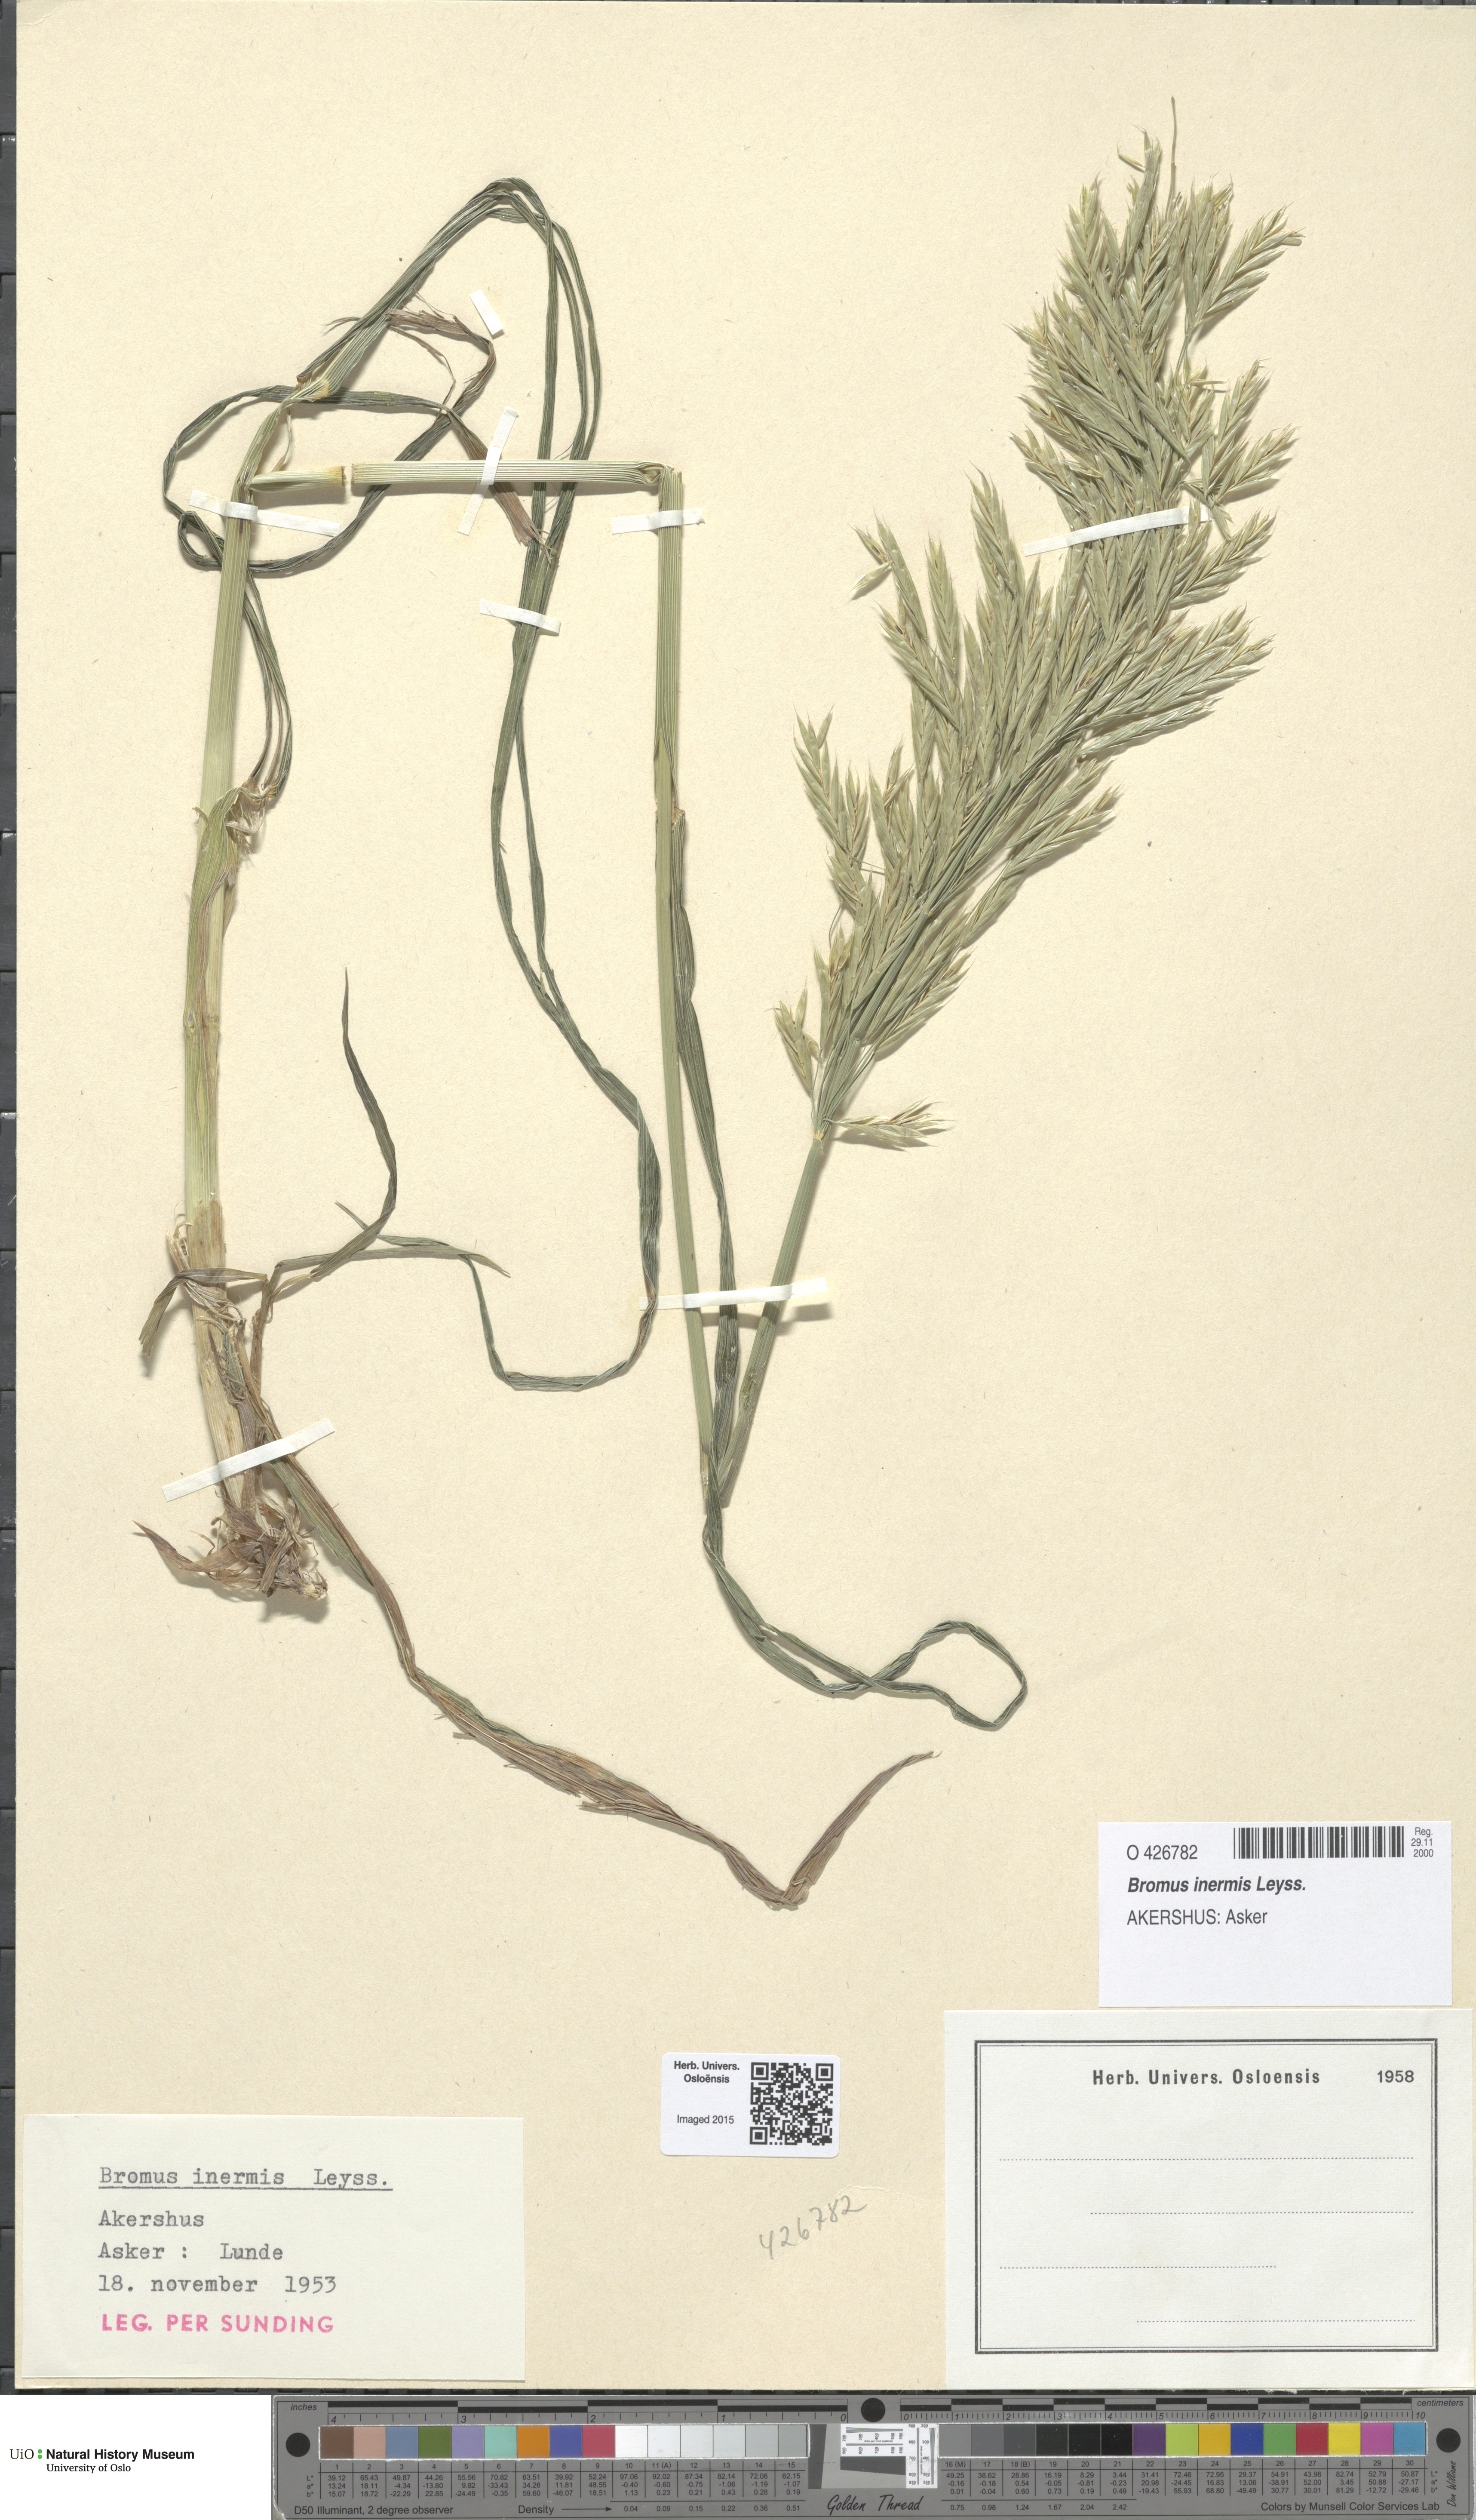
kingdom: Plantae
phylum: Tracheophyta
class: Liliopsida
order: Poales
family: Poaceae
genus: Bromus
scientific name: Bromus inermis
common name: Smooth brome
